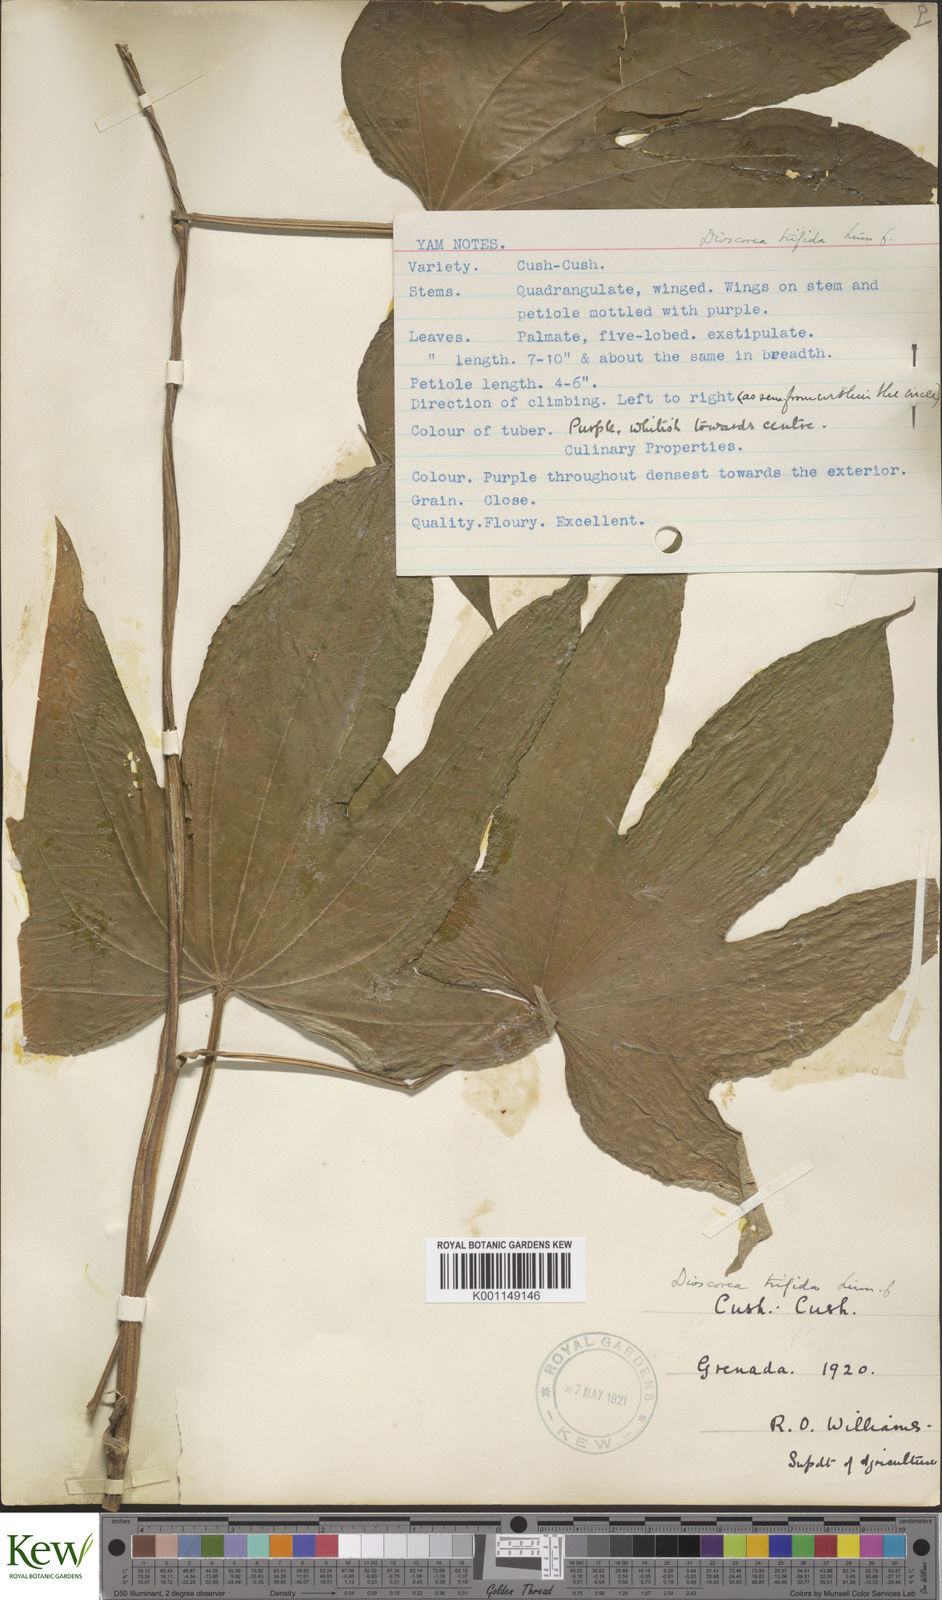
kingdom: Plantae
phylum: Tracheophyta
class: Liliopsida
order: Dioscoreales
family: Dioscoreaceae
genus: Dioscorea
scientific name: Dioscorea trifida
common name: Cush-cush
